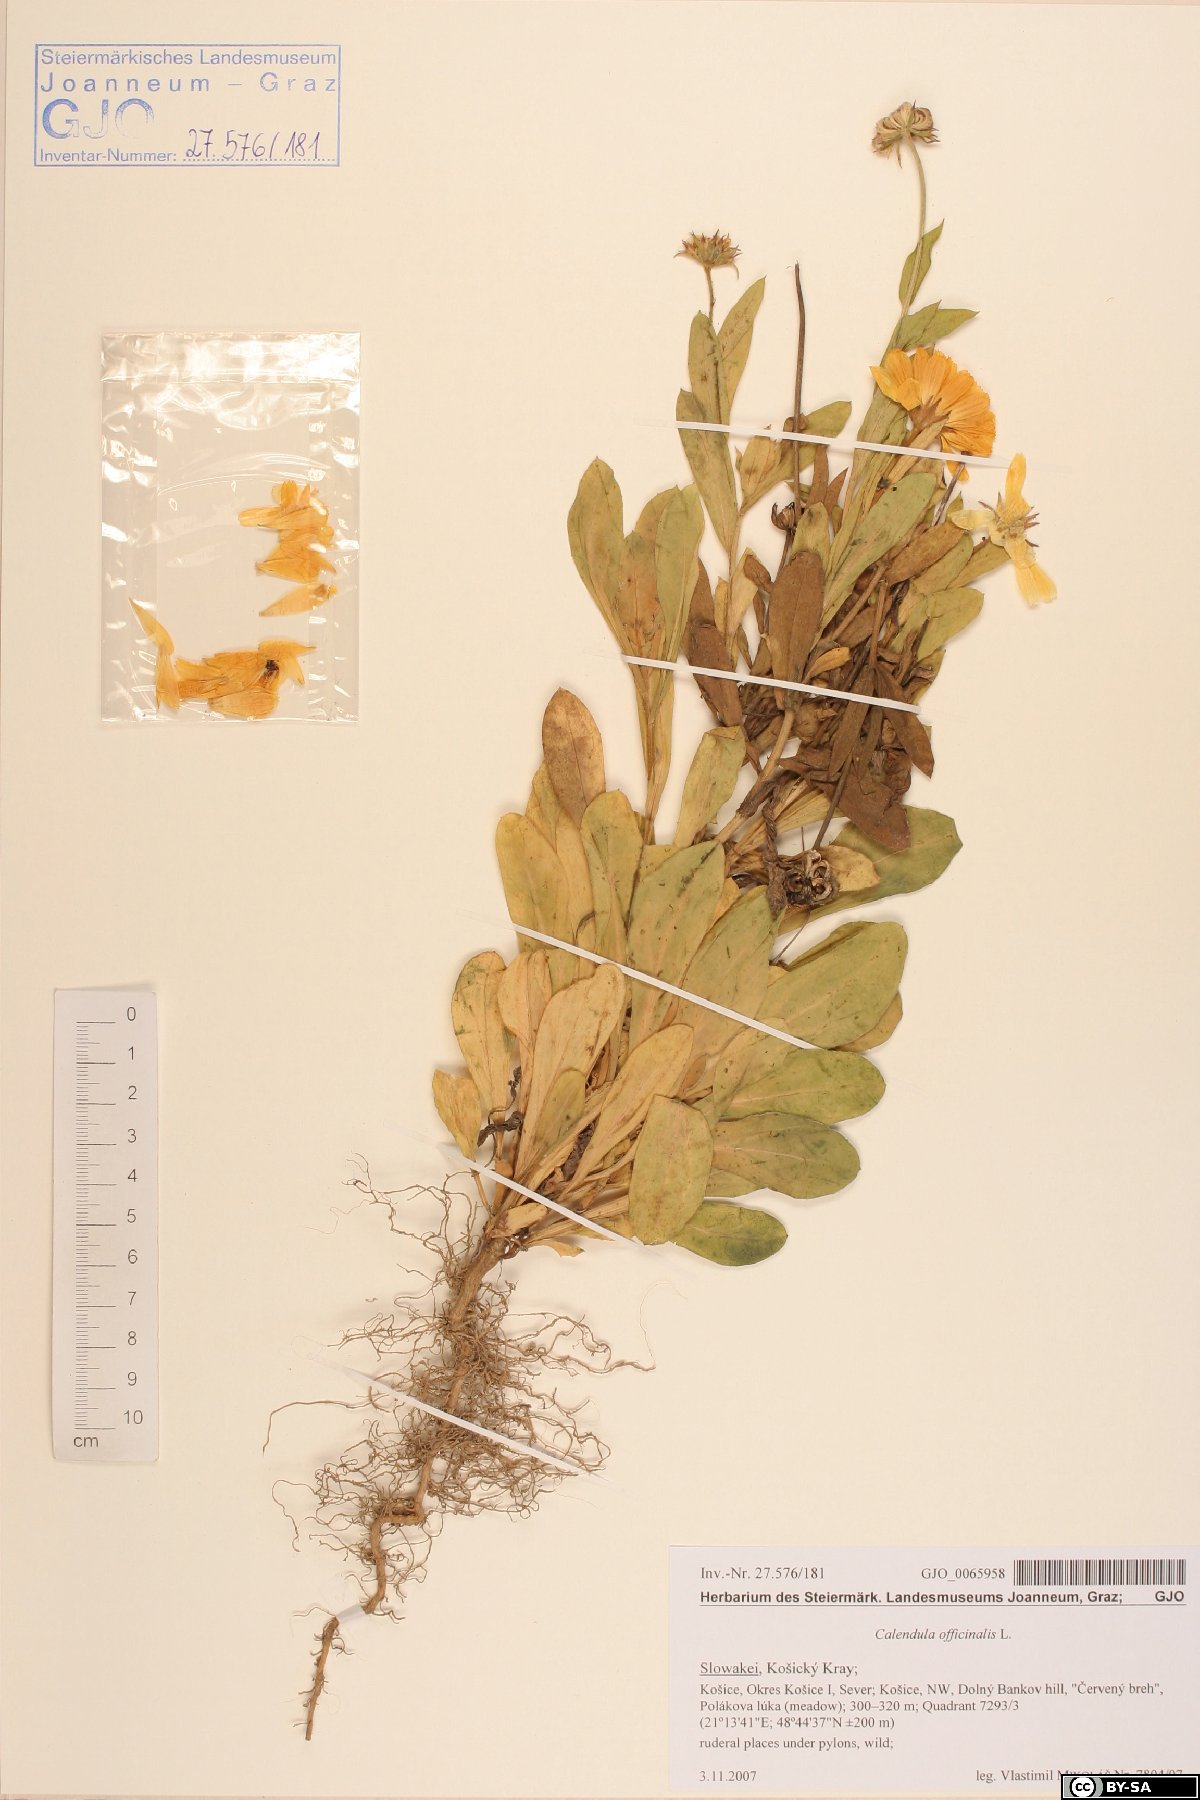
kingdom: Plantae
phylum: Tracheophyta
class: Magnoliopsida
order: Asterales
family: Asteraceae
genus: Calendula
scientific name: Calendula officinalis
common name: Pot marigold
